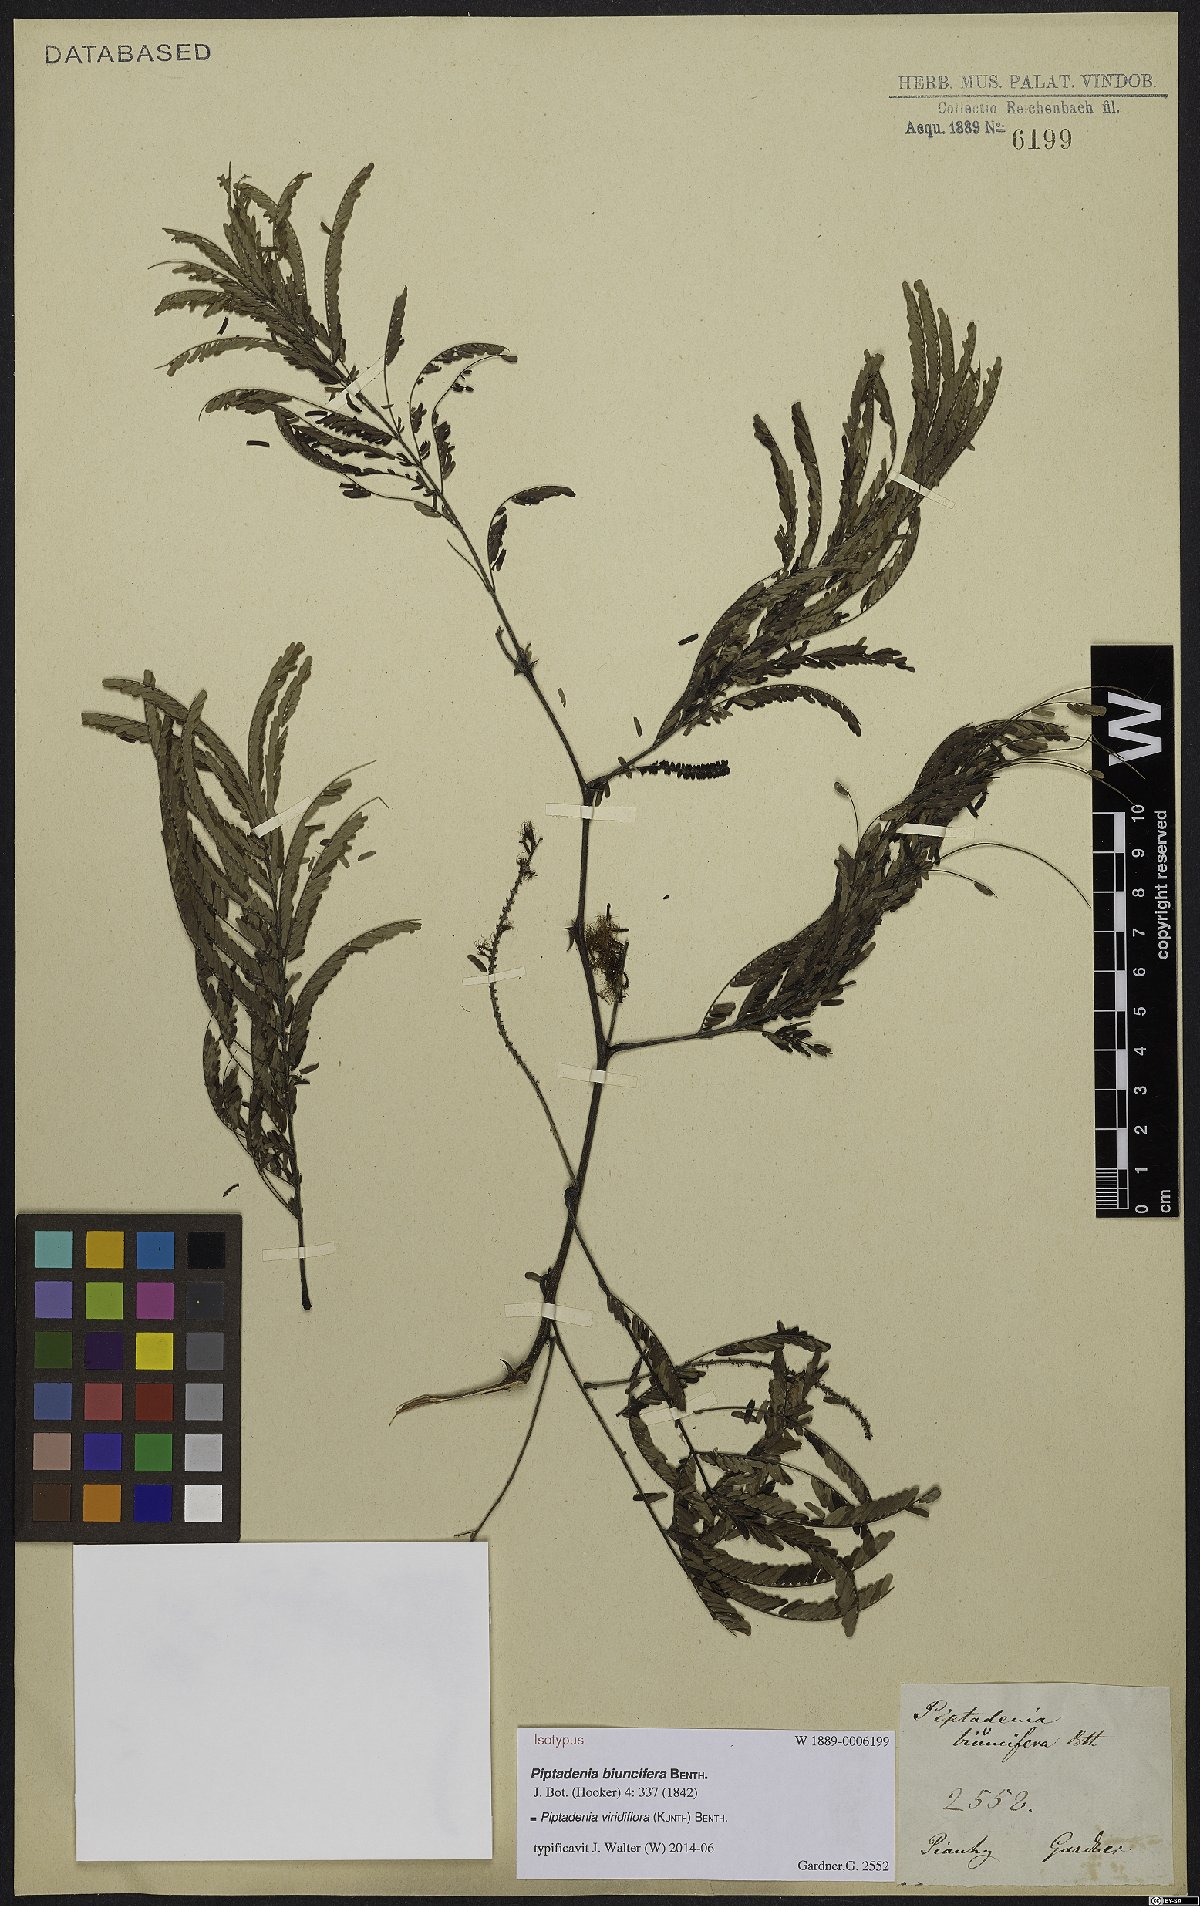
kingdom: Plantae
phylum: Tracheophyta
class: Magnoliopsida
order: Fabales
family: Fabaceae
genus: Lachesiodendron
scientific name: Lachesiodendron viridiflorum
